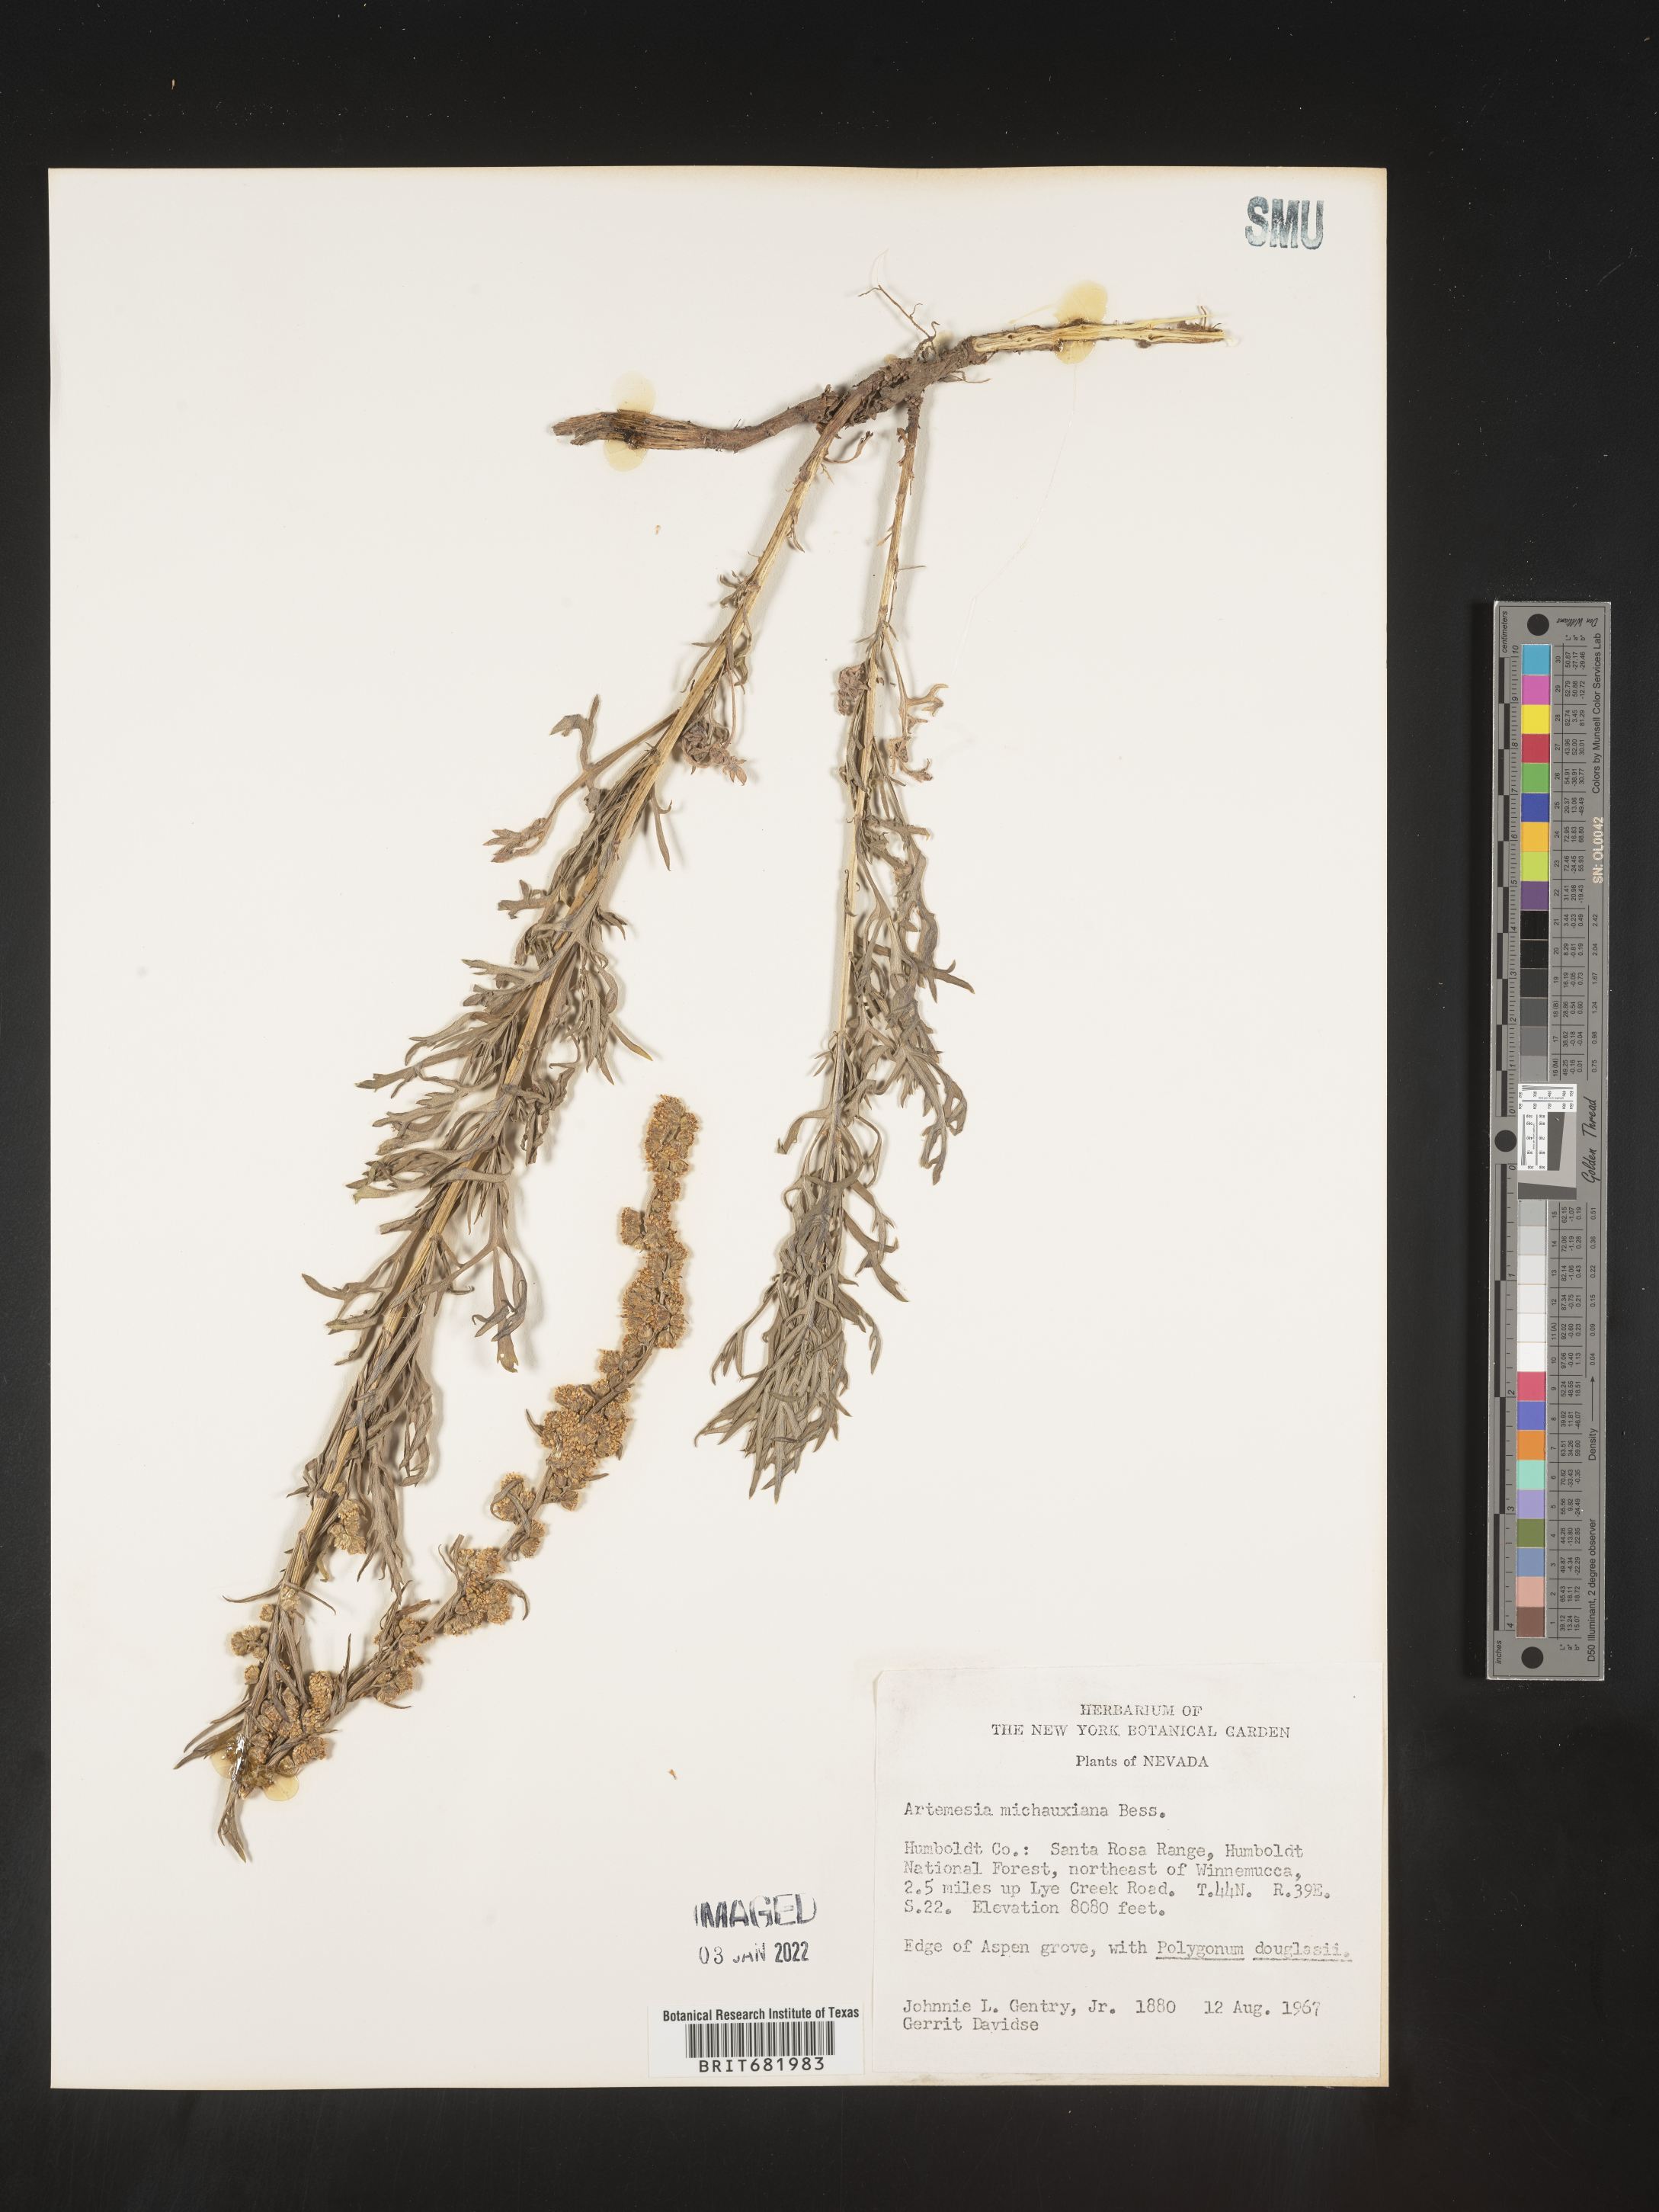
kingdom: Plantae
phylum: Tracheophyta
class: Magnoliopsida
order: Asterales
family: Asteraceae
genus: Artemisia
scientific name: Artemisia michauxiana
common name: Lemon sagewort
